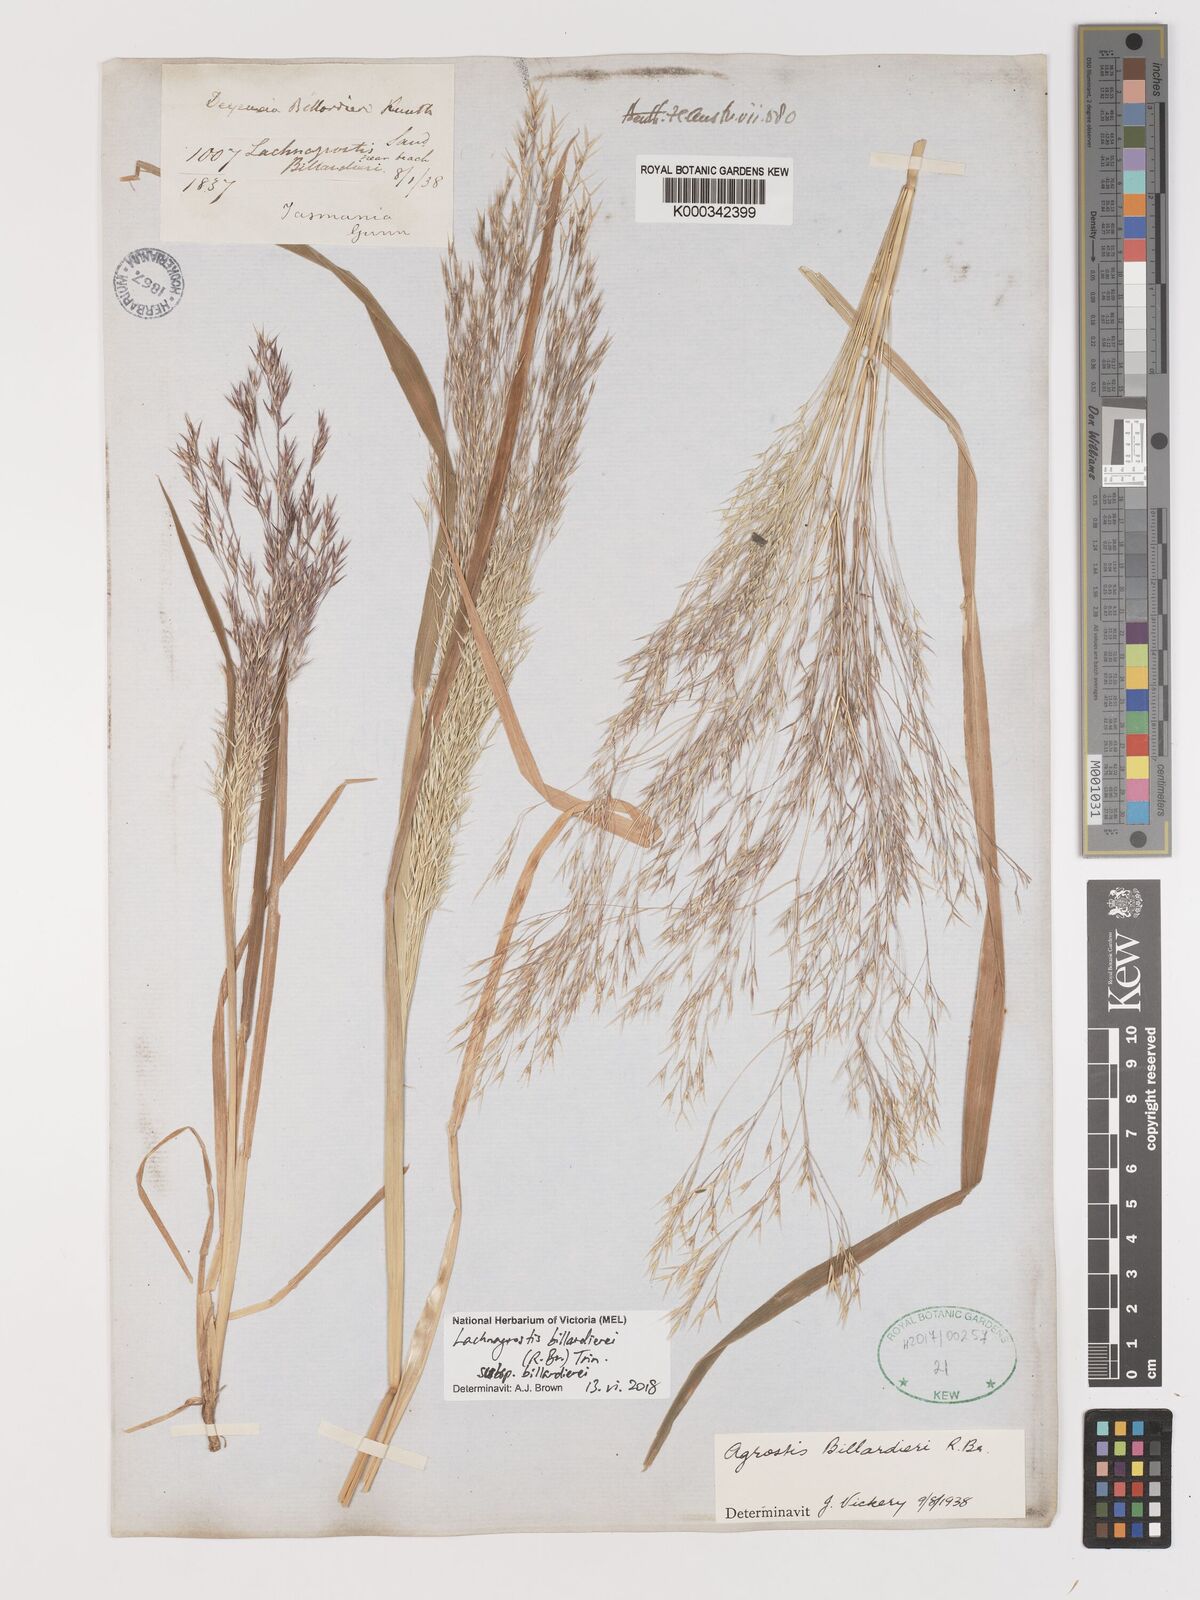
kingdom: Plantae
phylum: Tracheophyta
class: Liliopsida
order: Poales
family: Poaceae
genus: Lachnagrostis
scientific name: Lachnagrostis billardierei
